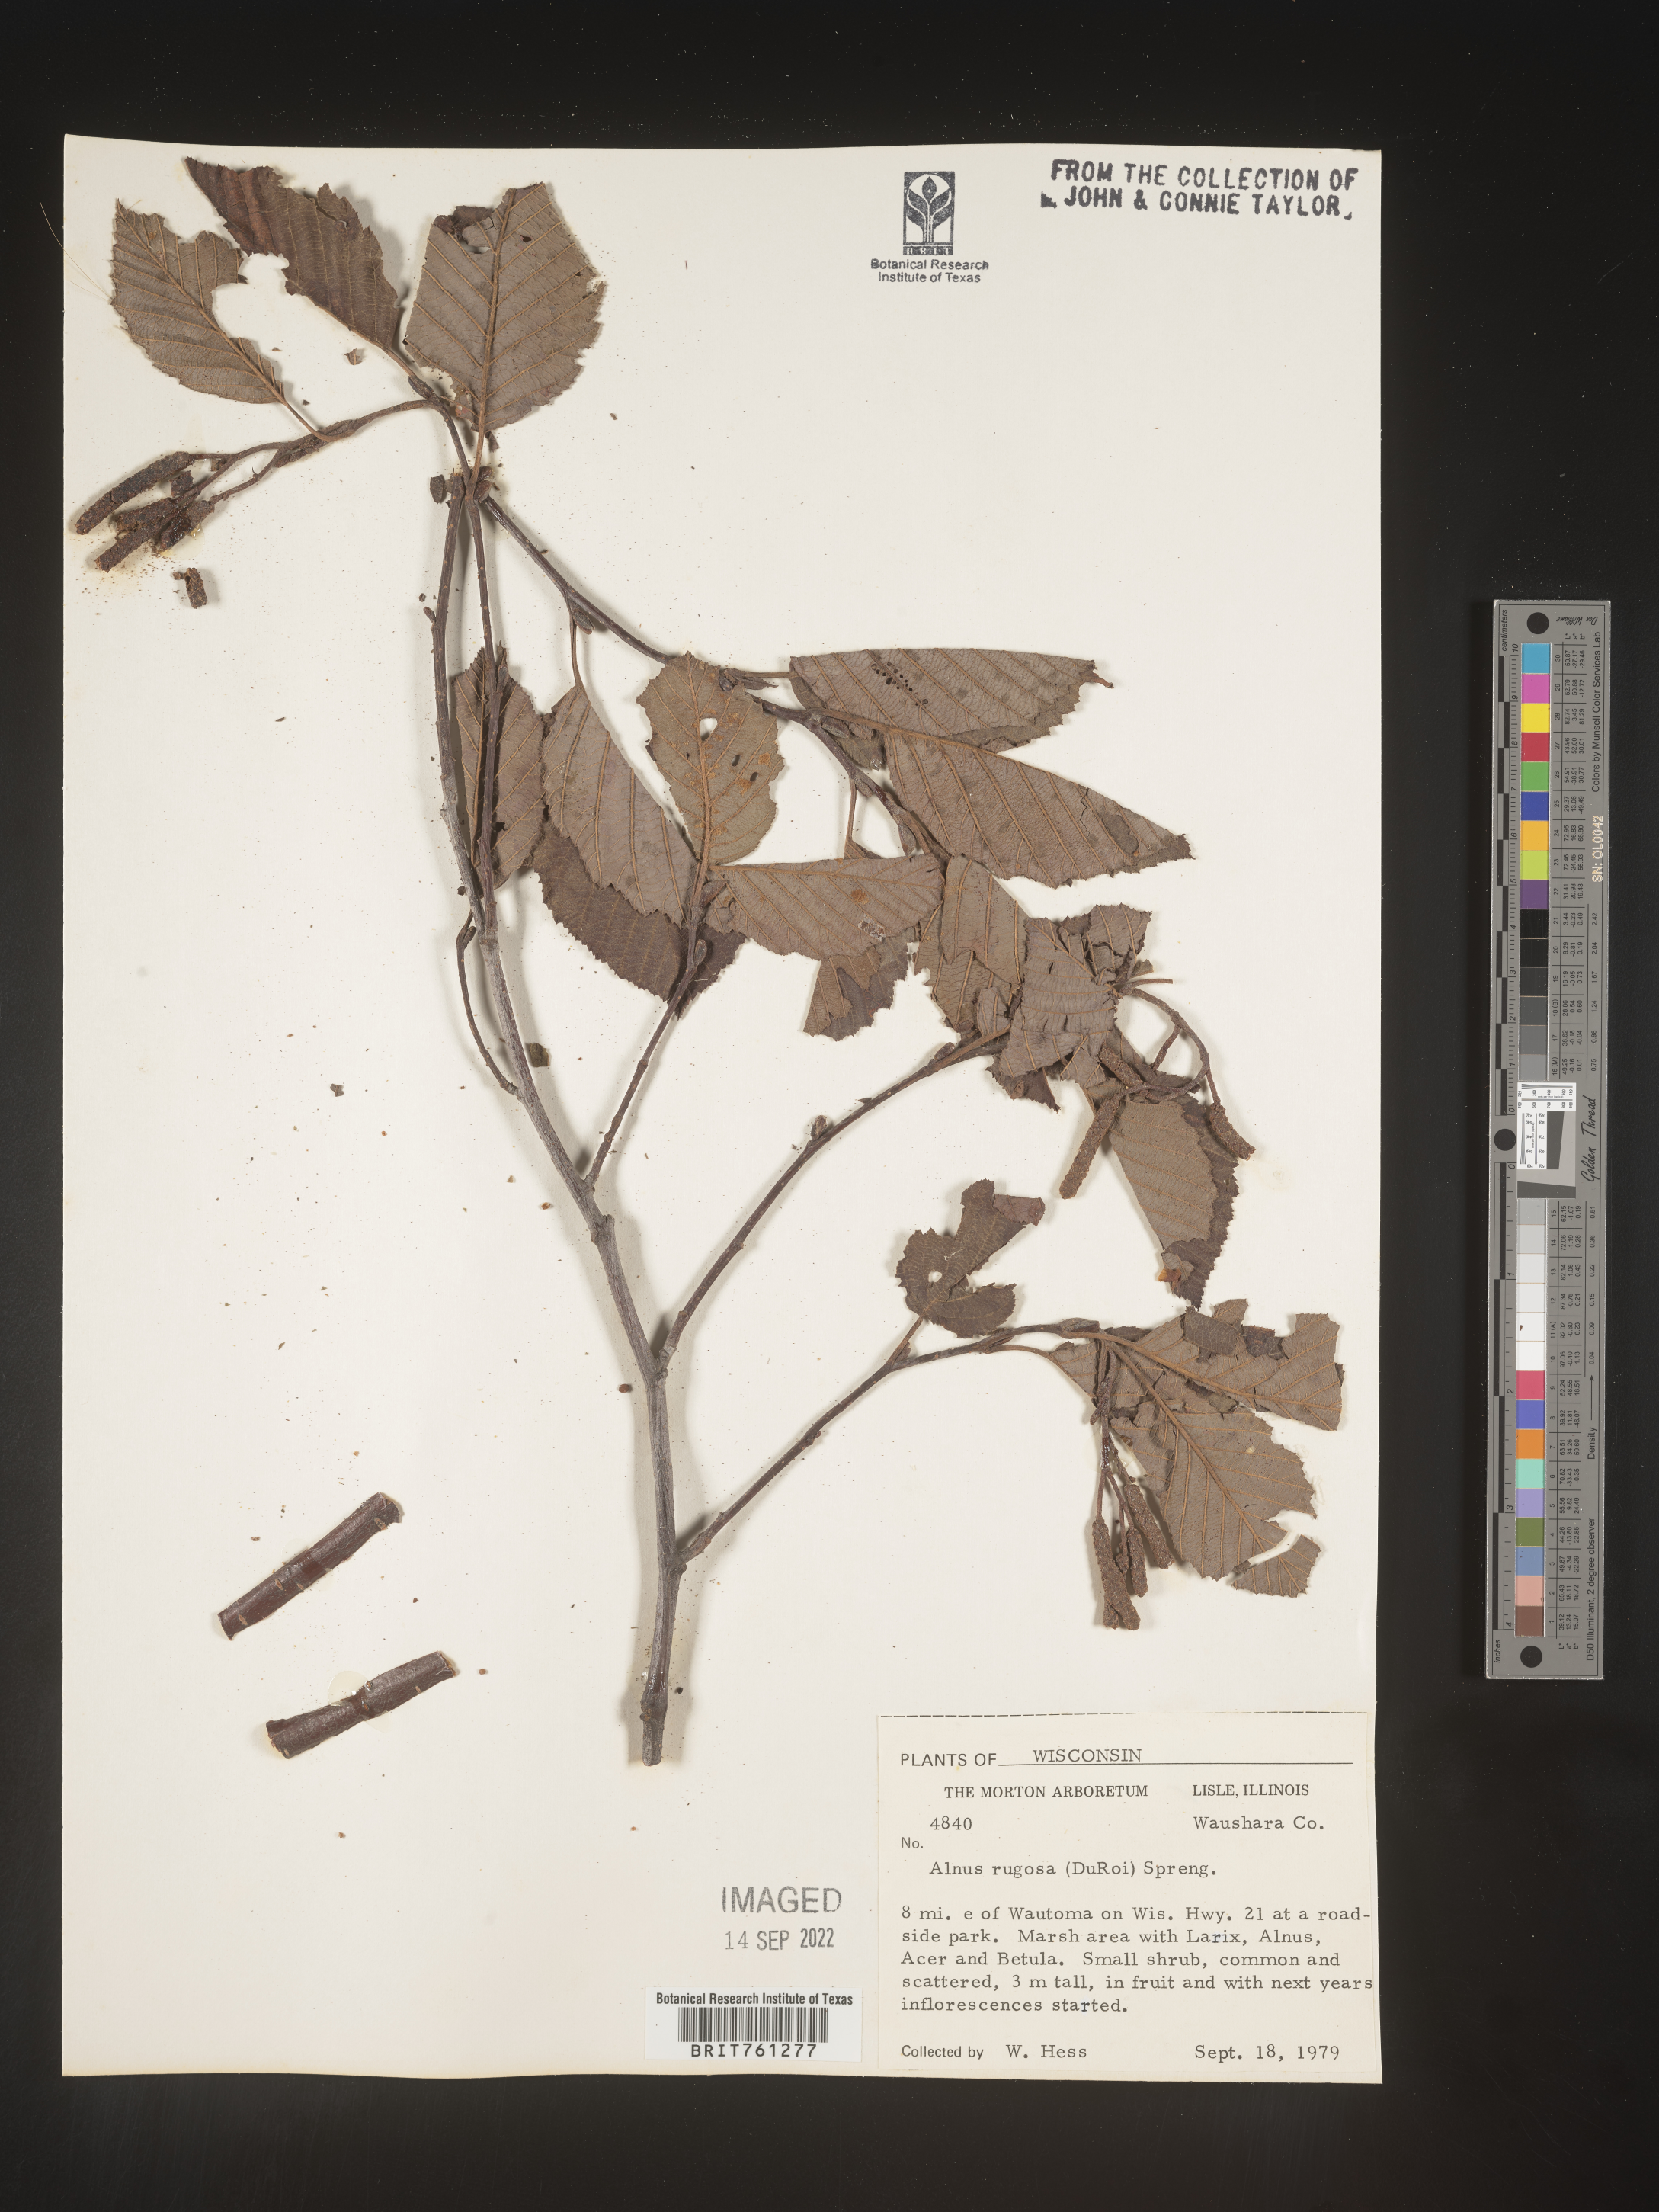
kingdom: Plantae
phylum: Tracheophyta
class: Magnoliopsida
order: Fagales
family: Betulaceae
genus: Alnus
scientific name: Alnus incana
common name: Grey alder
